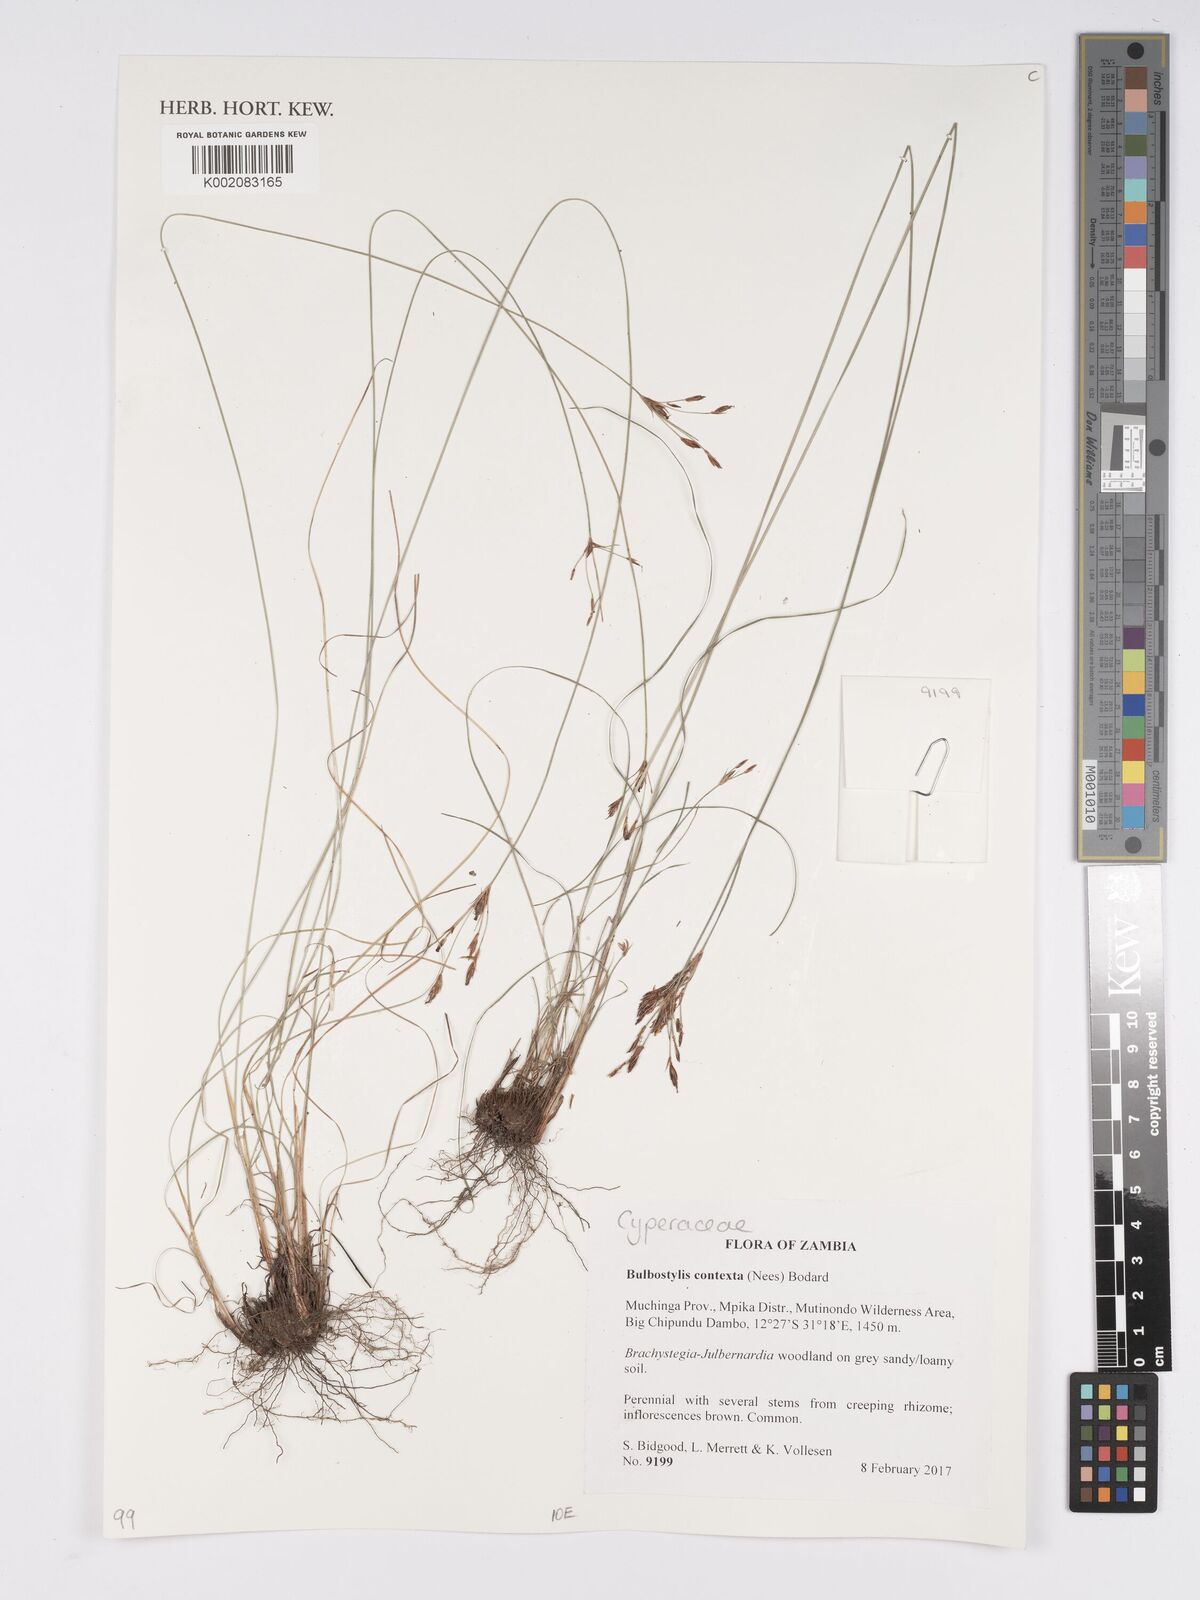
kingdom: Plantae
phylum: Tracheophyta
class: Liliopsida
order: Poales
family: Cyperaceae
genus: Bulbostylis
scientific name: Bulbostylis contexta
